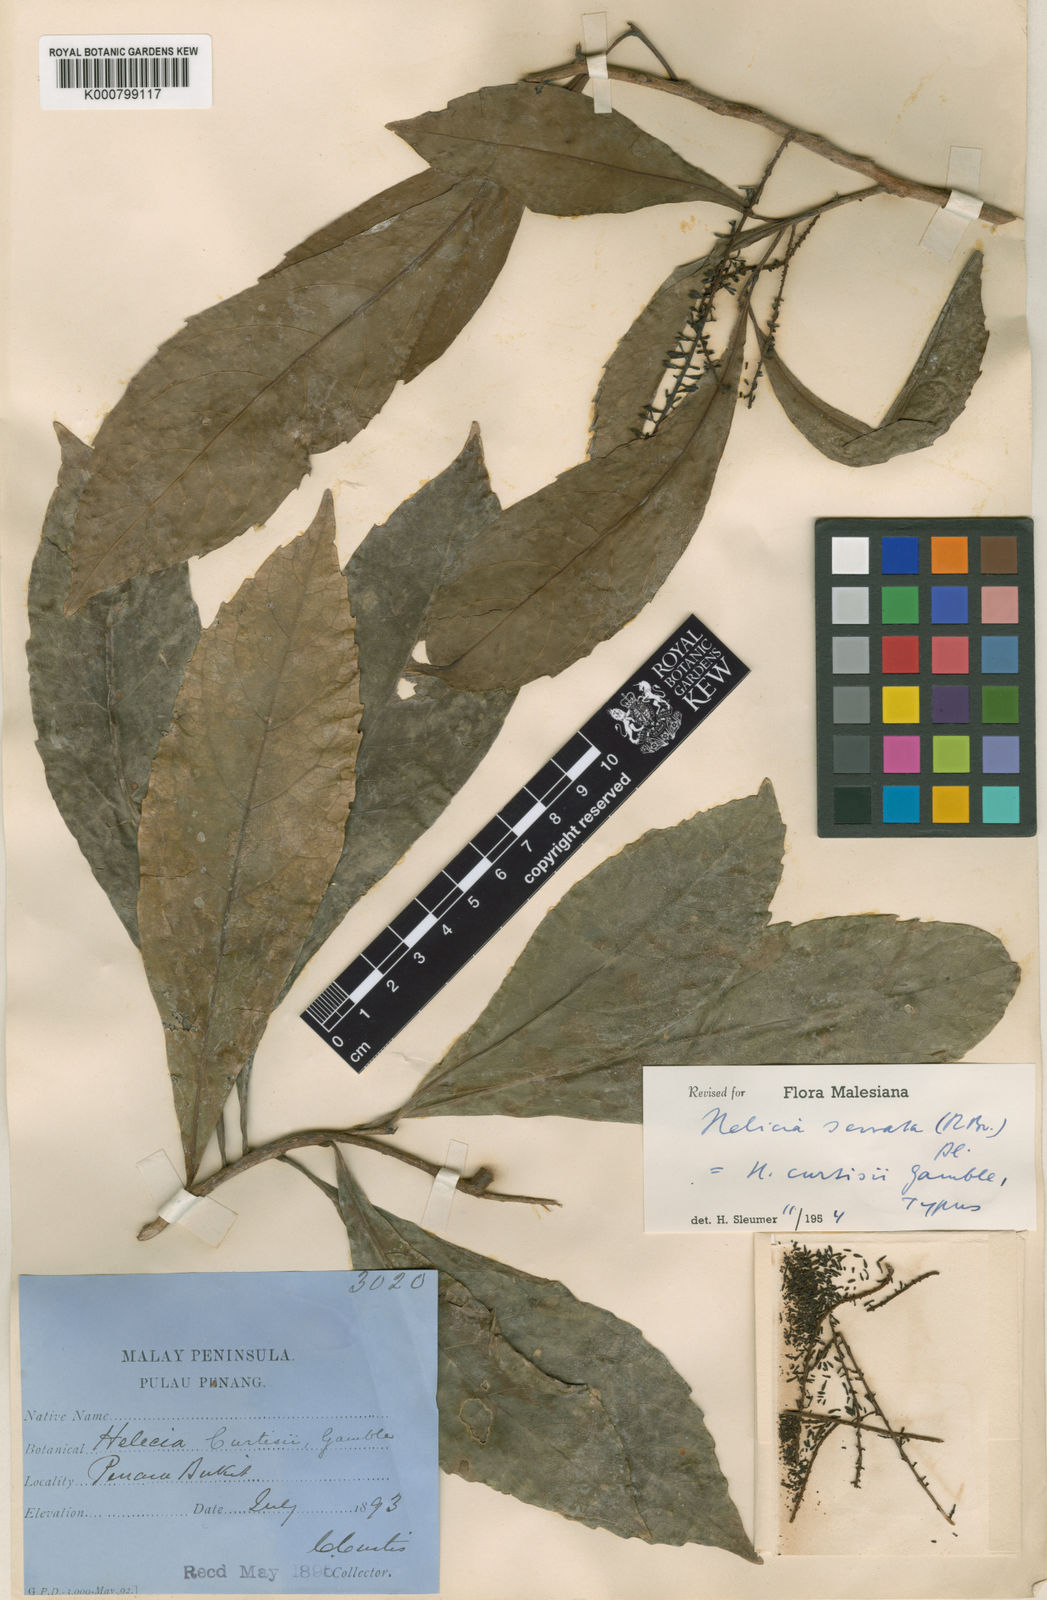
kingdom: Plantae
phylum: Tracheophyta
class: Magnoliopsida
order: Proteales
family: Proteaceae
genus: Helicia
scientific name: Helicia serrata
